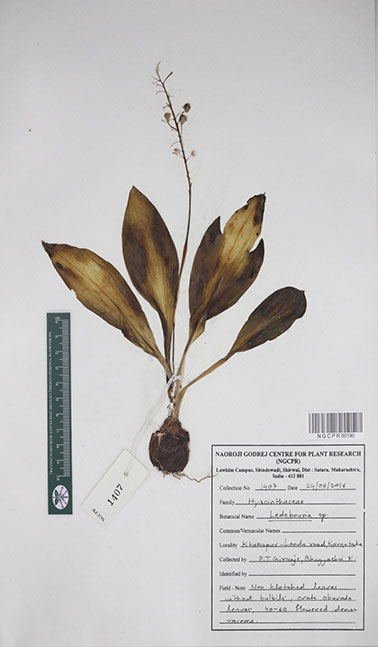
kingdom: Plantae
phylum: Tracheophyta
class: Liliopsida
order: Asparagales
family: Asparagaceae
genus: Ledebouria
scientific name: Ledebouria
